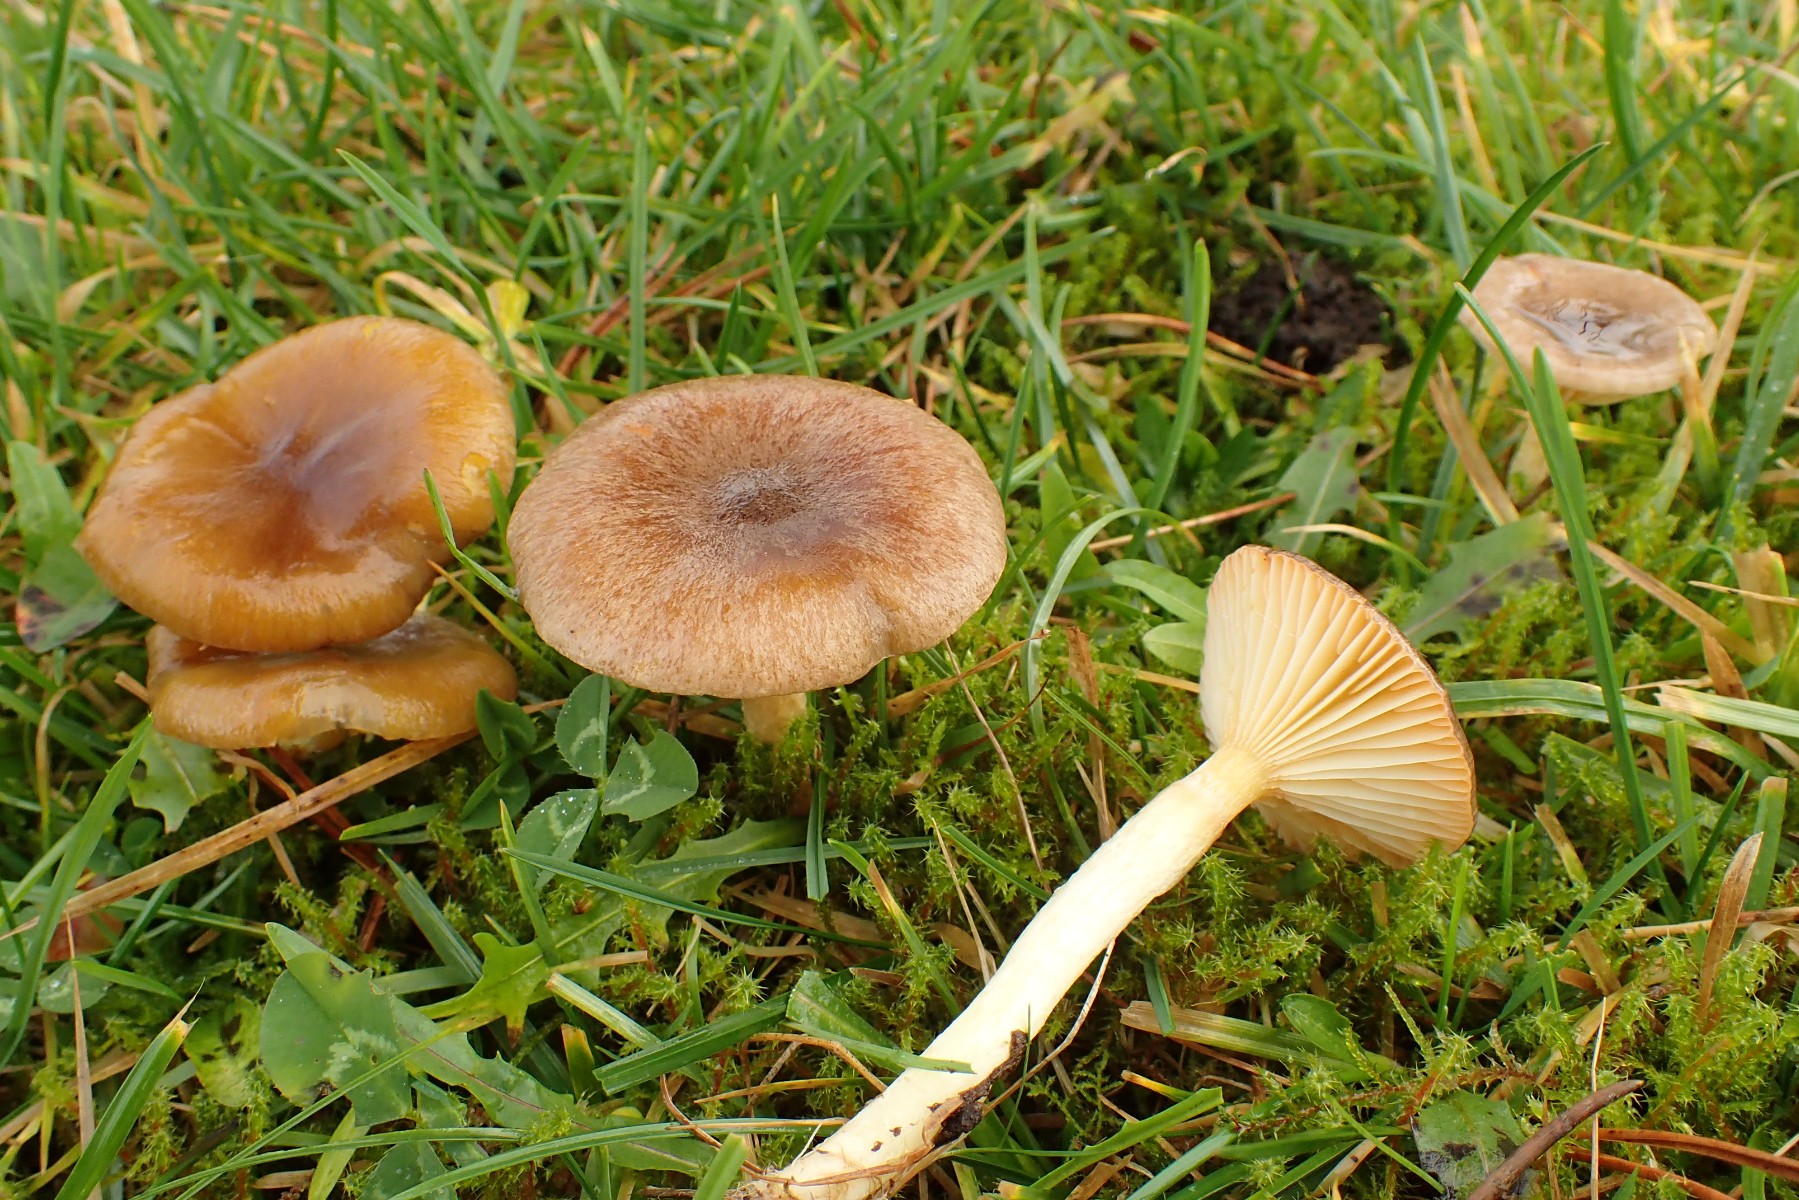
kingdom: Fungi
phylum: Basidiomycota
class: Agaricomycetes
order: Agaricales
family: Hygrophoraceae
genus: Hygrophorus
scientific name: Hygrophorus hypothejus
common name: frost-sneglehat
